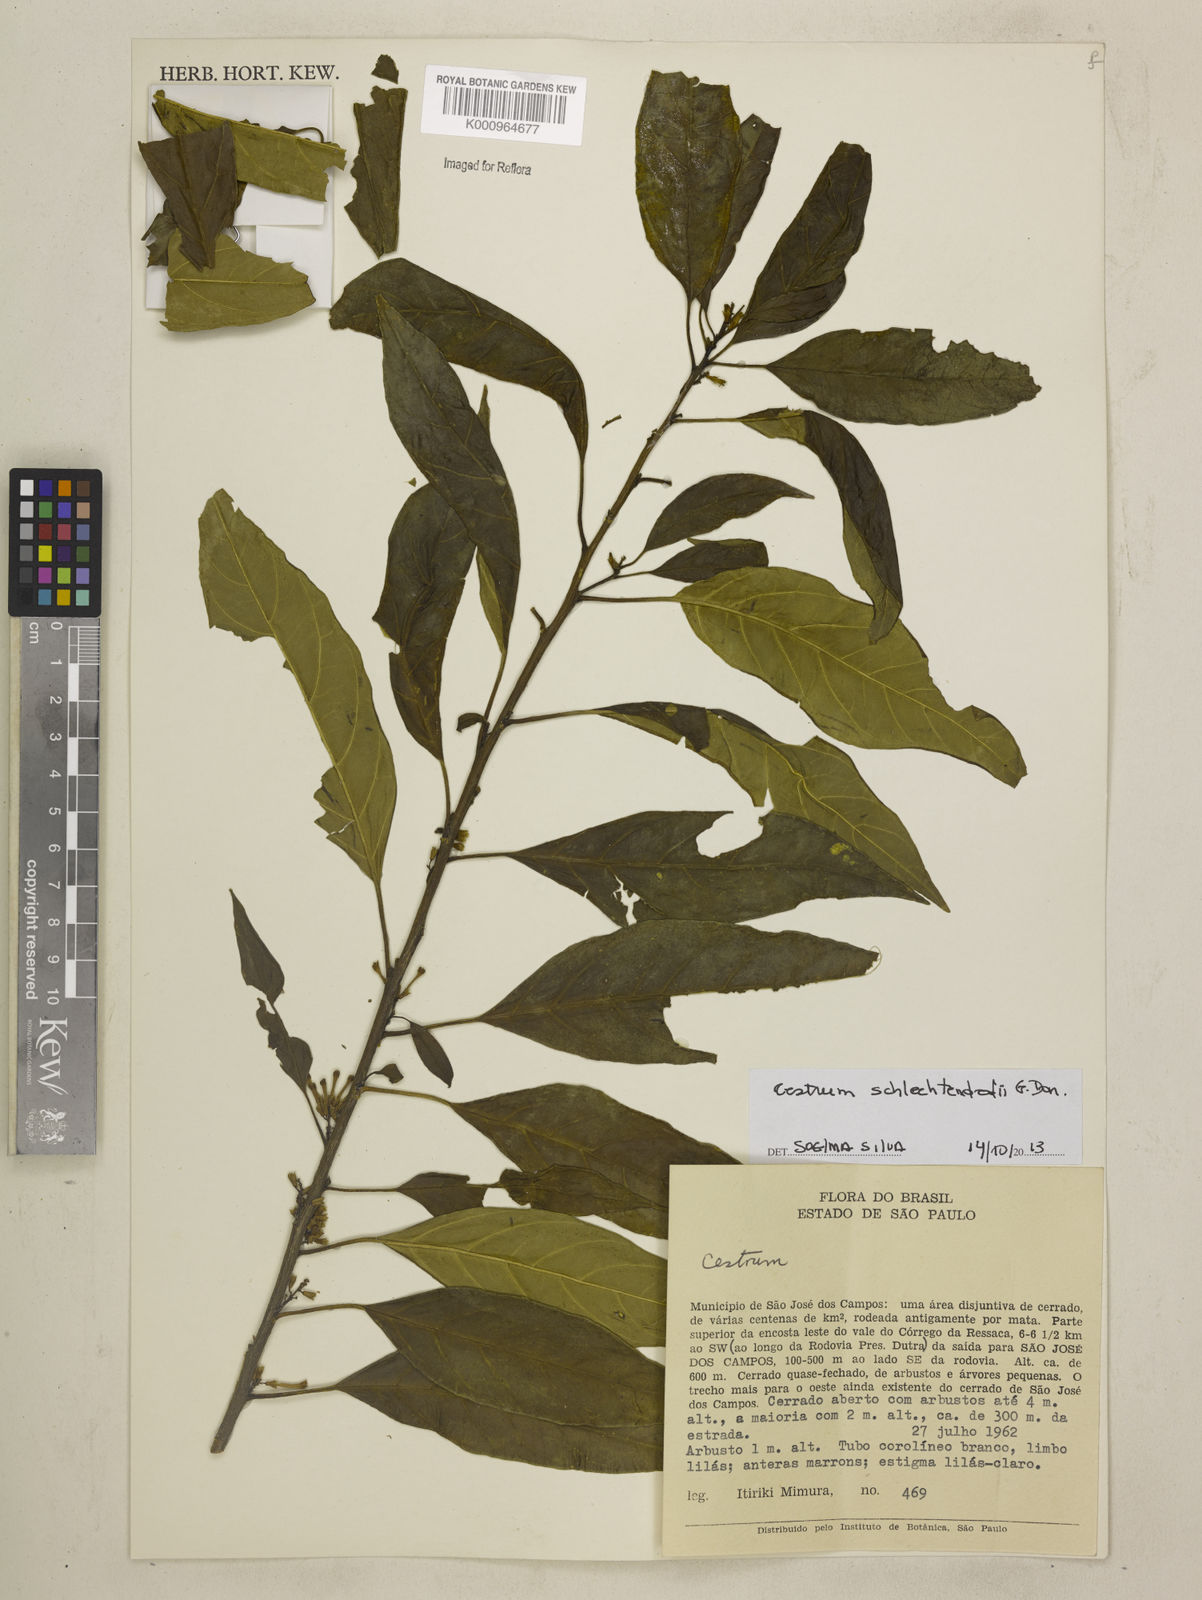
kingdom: Plantae
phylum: Tracheophyta
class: Magnoliopsida
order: Solanales
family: Solanaceae
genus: Cestrum
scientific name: Cestrum schlechtendalii
